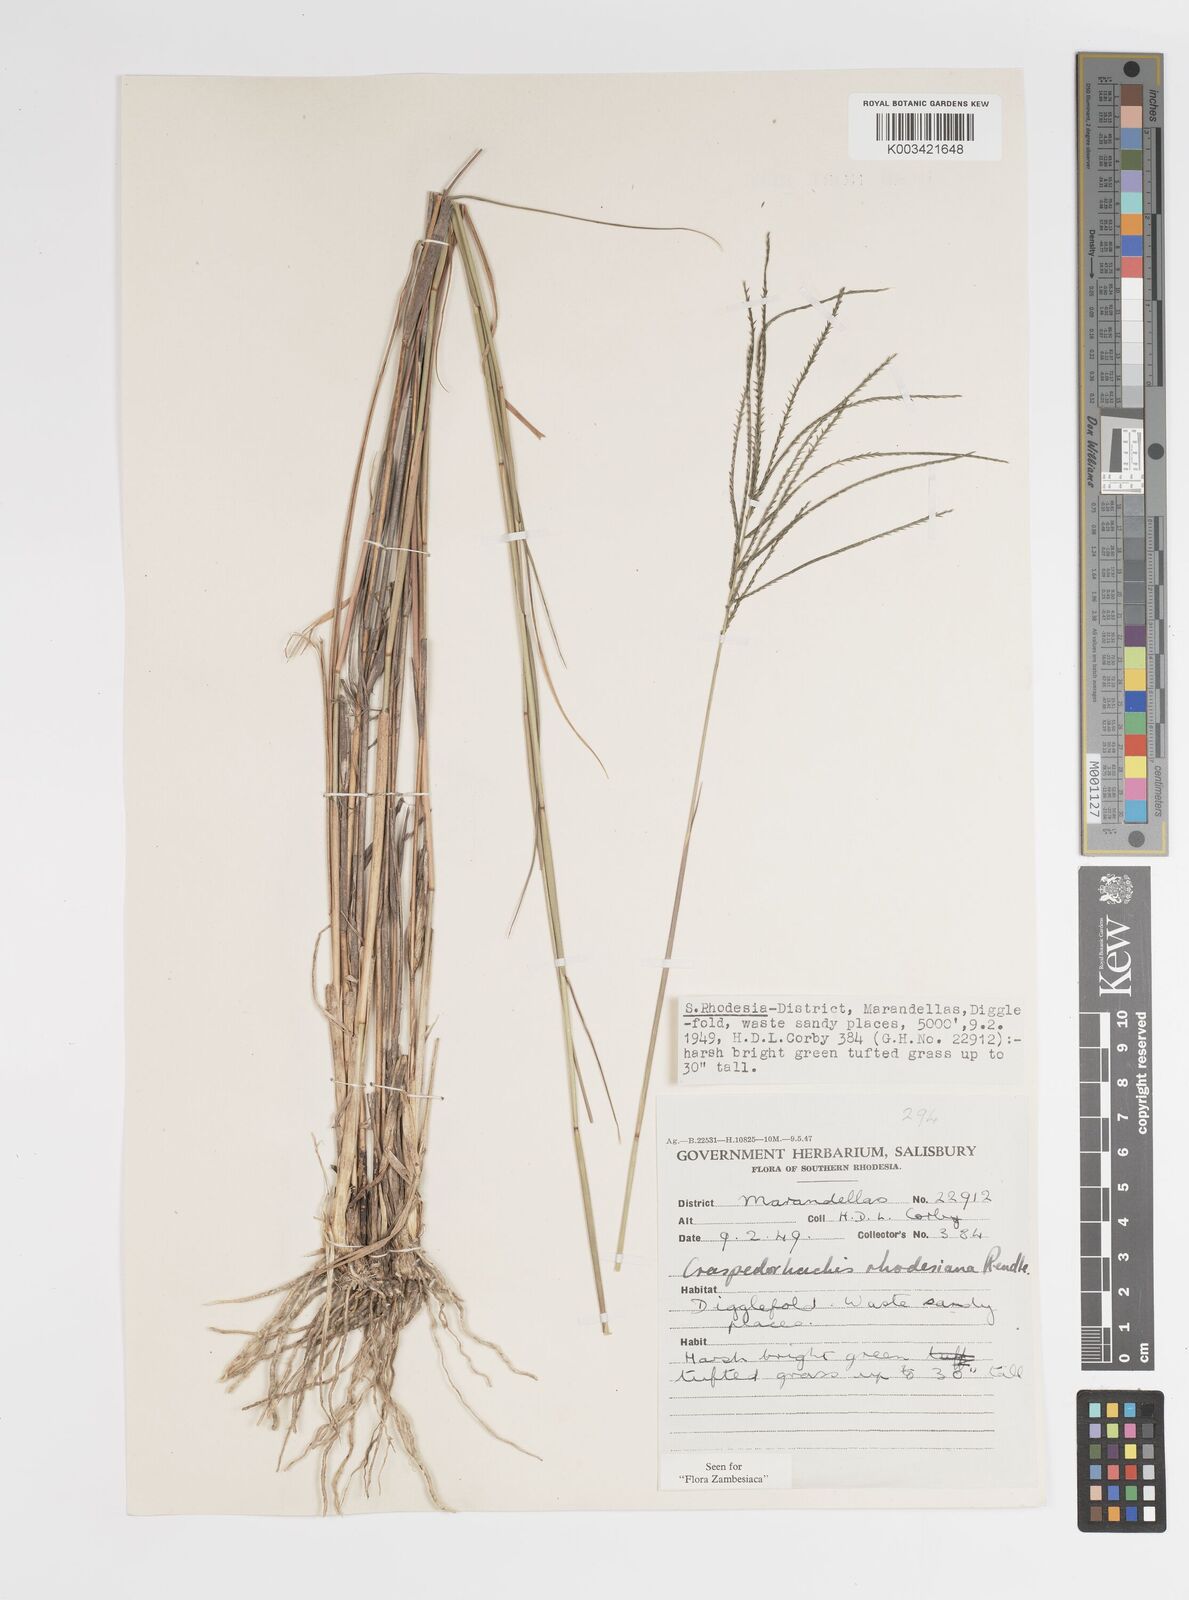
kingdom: Plantae
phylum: Tracheophyta
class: Liliopsida
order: Poales
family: Poaceae
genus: Craspedorhachis
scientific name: Craspedorhachis rhodesiana
